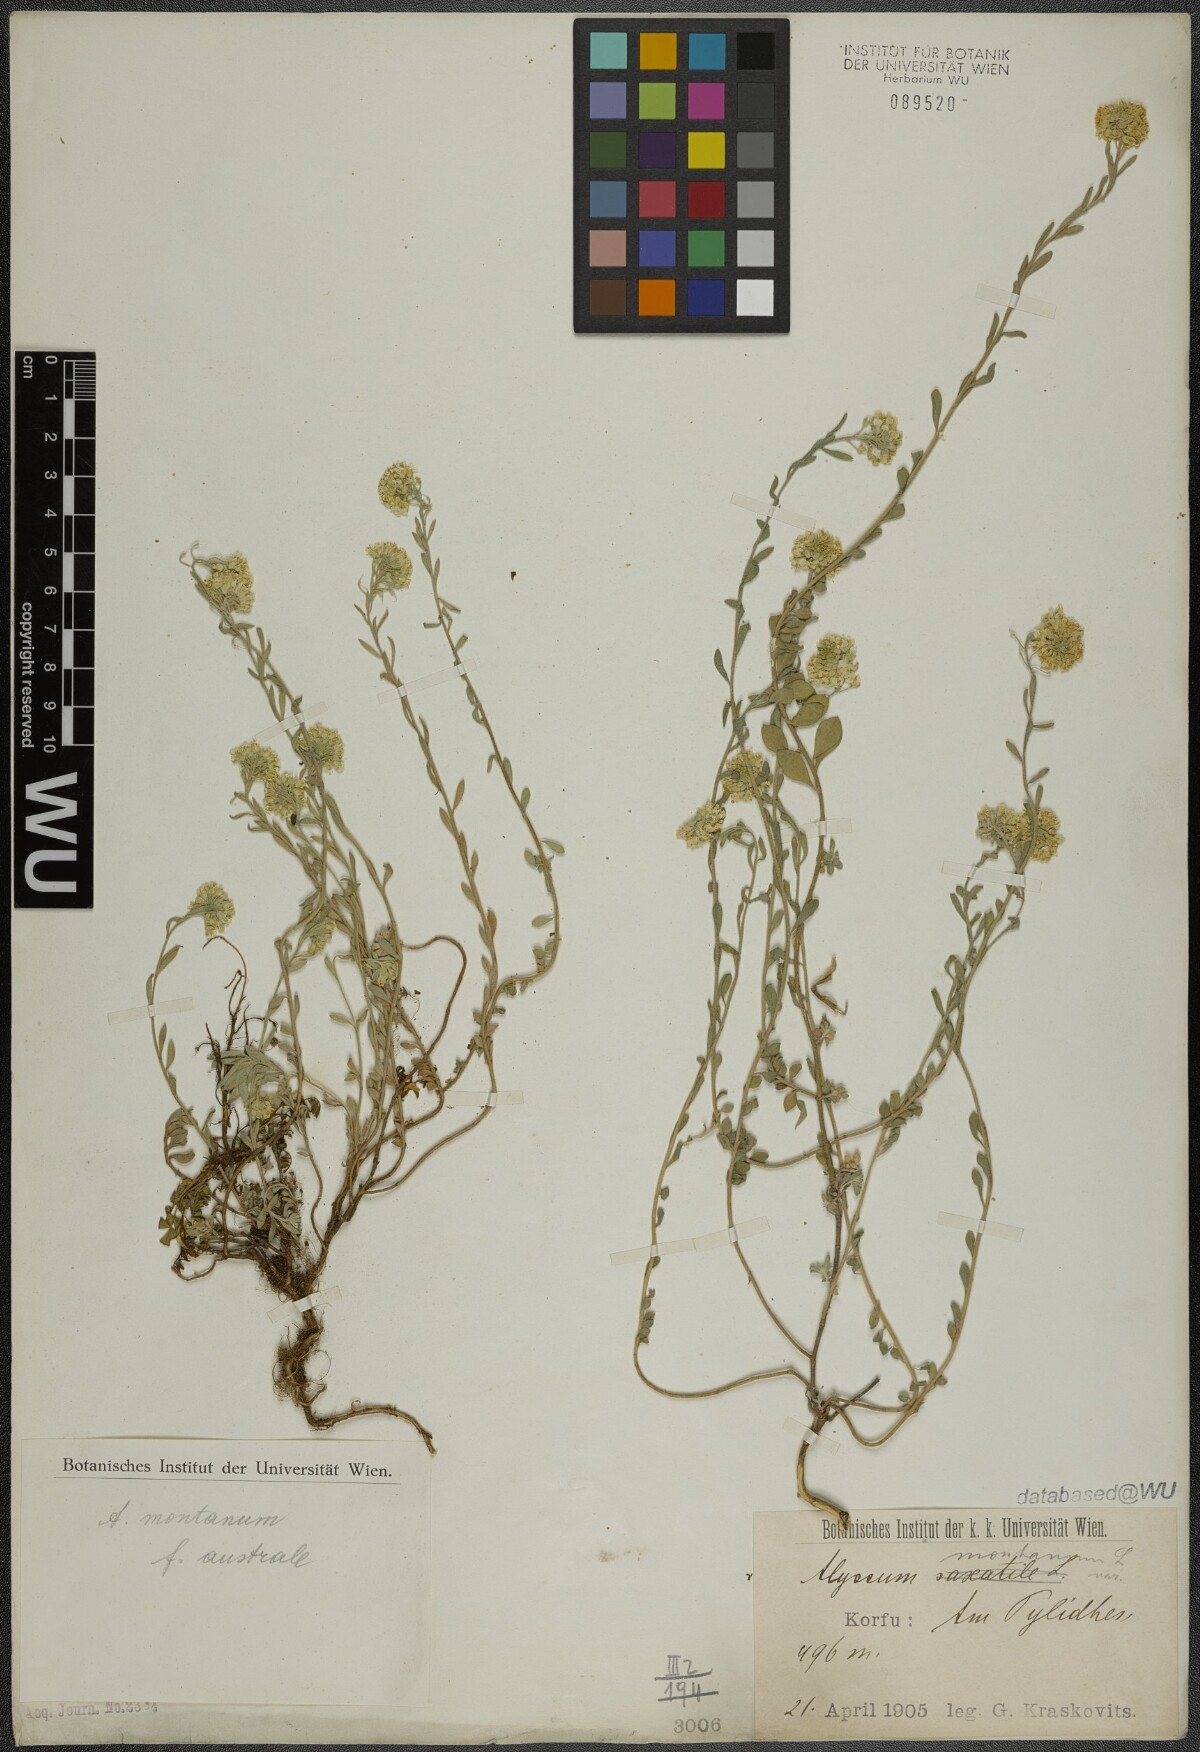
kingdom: Plantae
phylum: Tracheophyta
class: Magnoliopsida
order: Brassicales
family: Brassicaceae
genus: Alyssum
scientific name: Alyssum montanum
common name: Mountain alison
